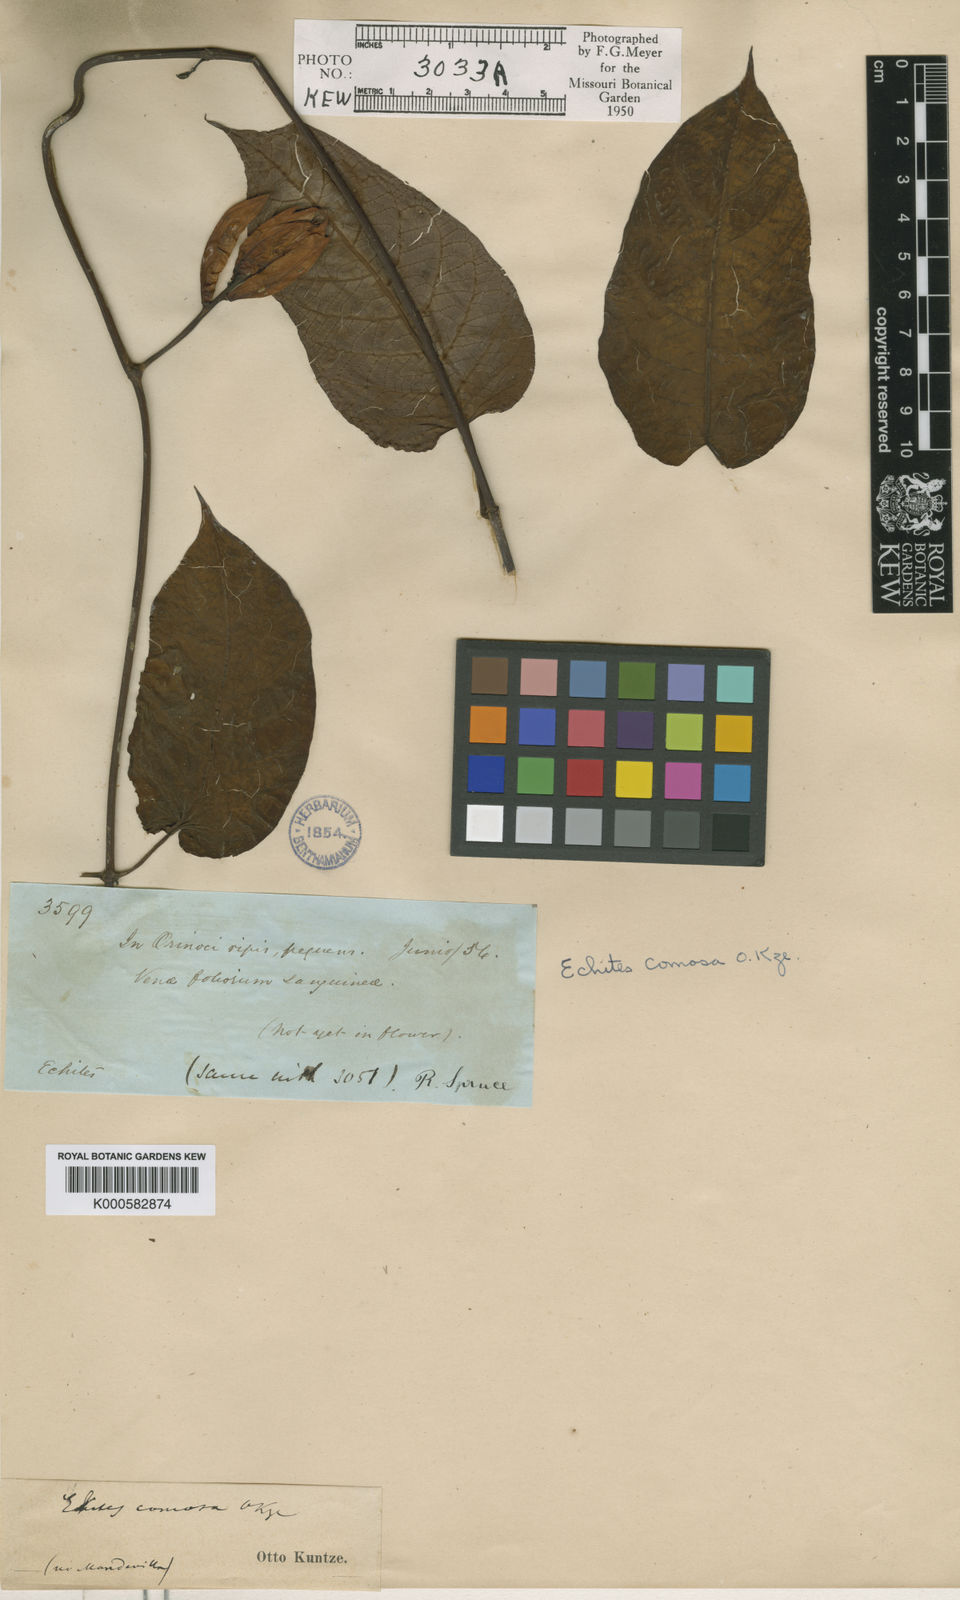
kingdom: Plantae
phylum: Tracheophyta
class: Magnoliopsida
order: Gentianales
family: Apocynaceae
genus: Mandevilla
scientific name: Mandevilla villosa
